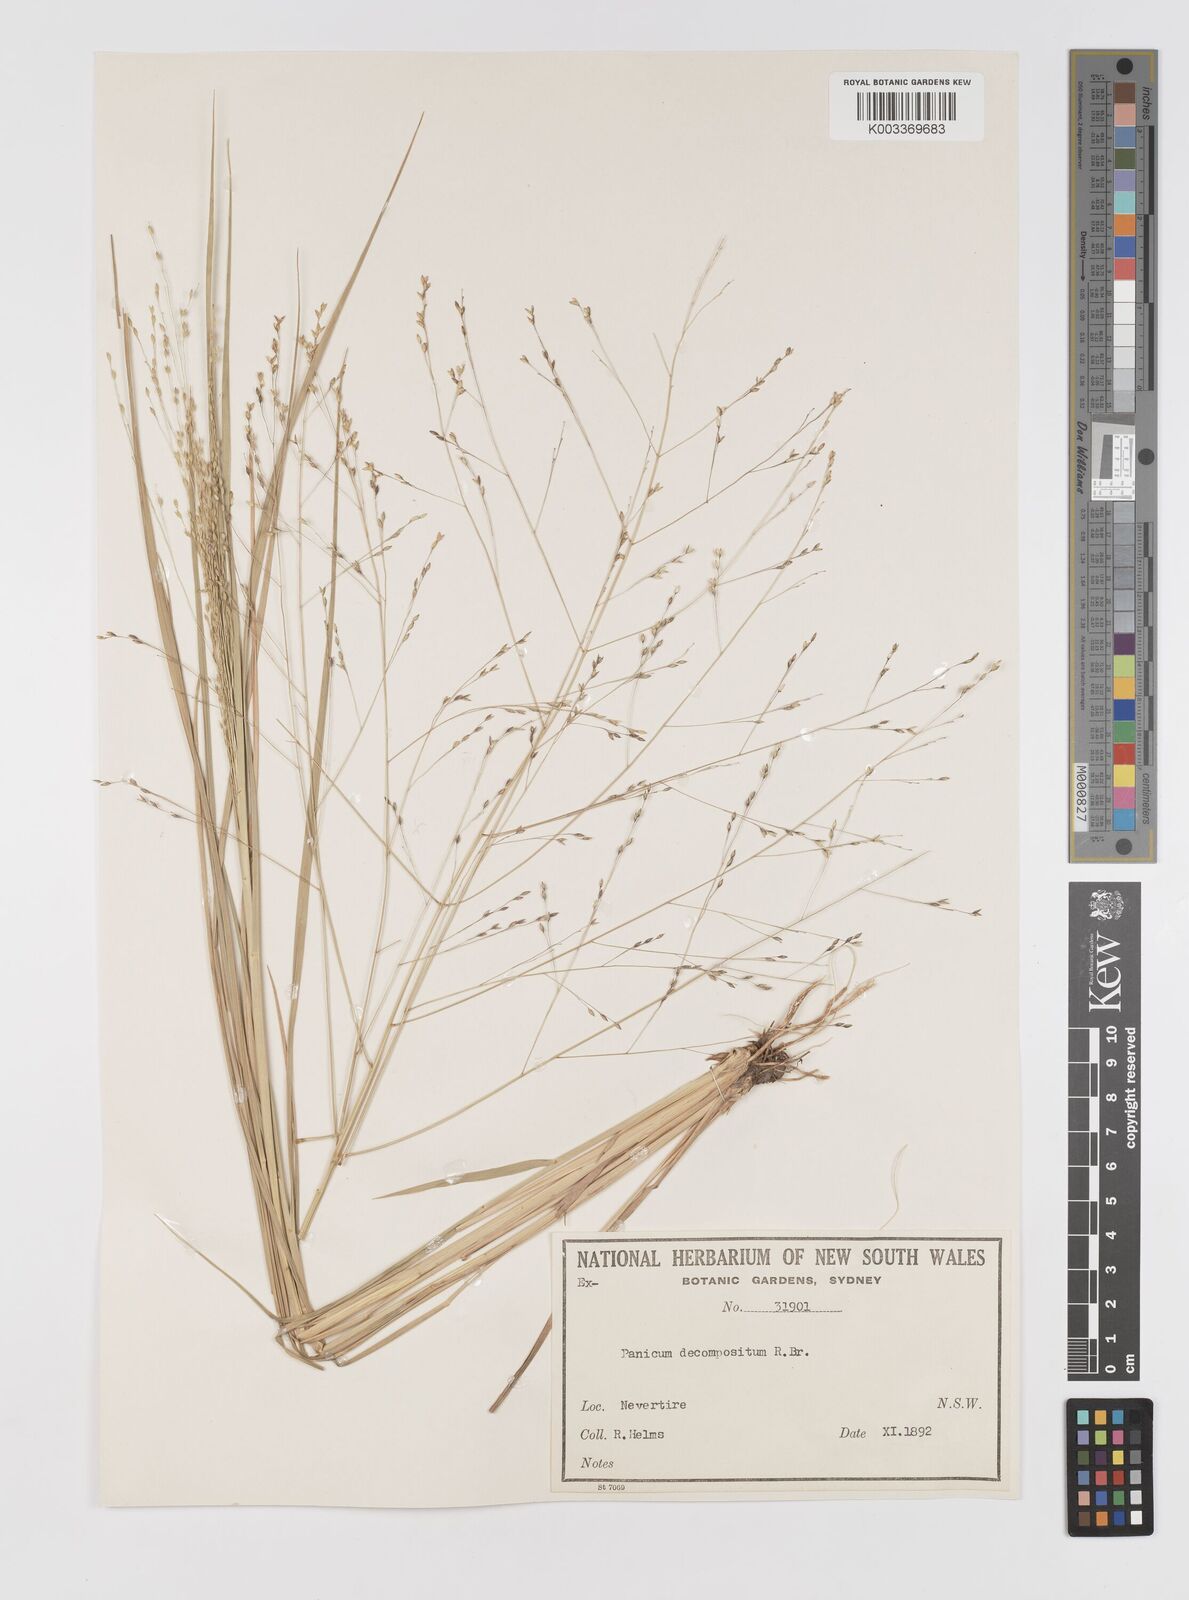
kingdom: Plantae
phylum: Tracheophyta
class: Liliopsida
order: Poales
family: Poaceae
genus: Panicum
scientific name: Panicum decompositum
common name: Australian millet
